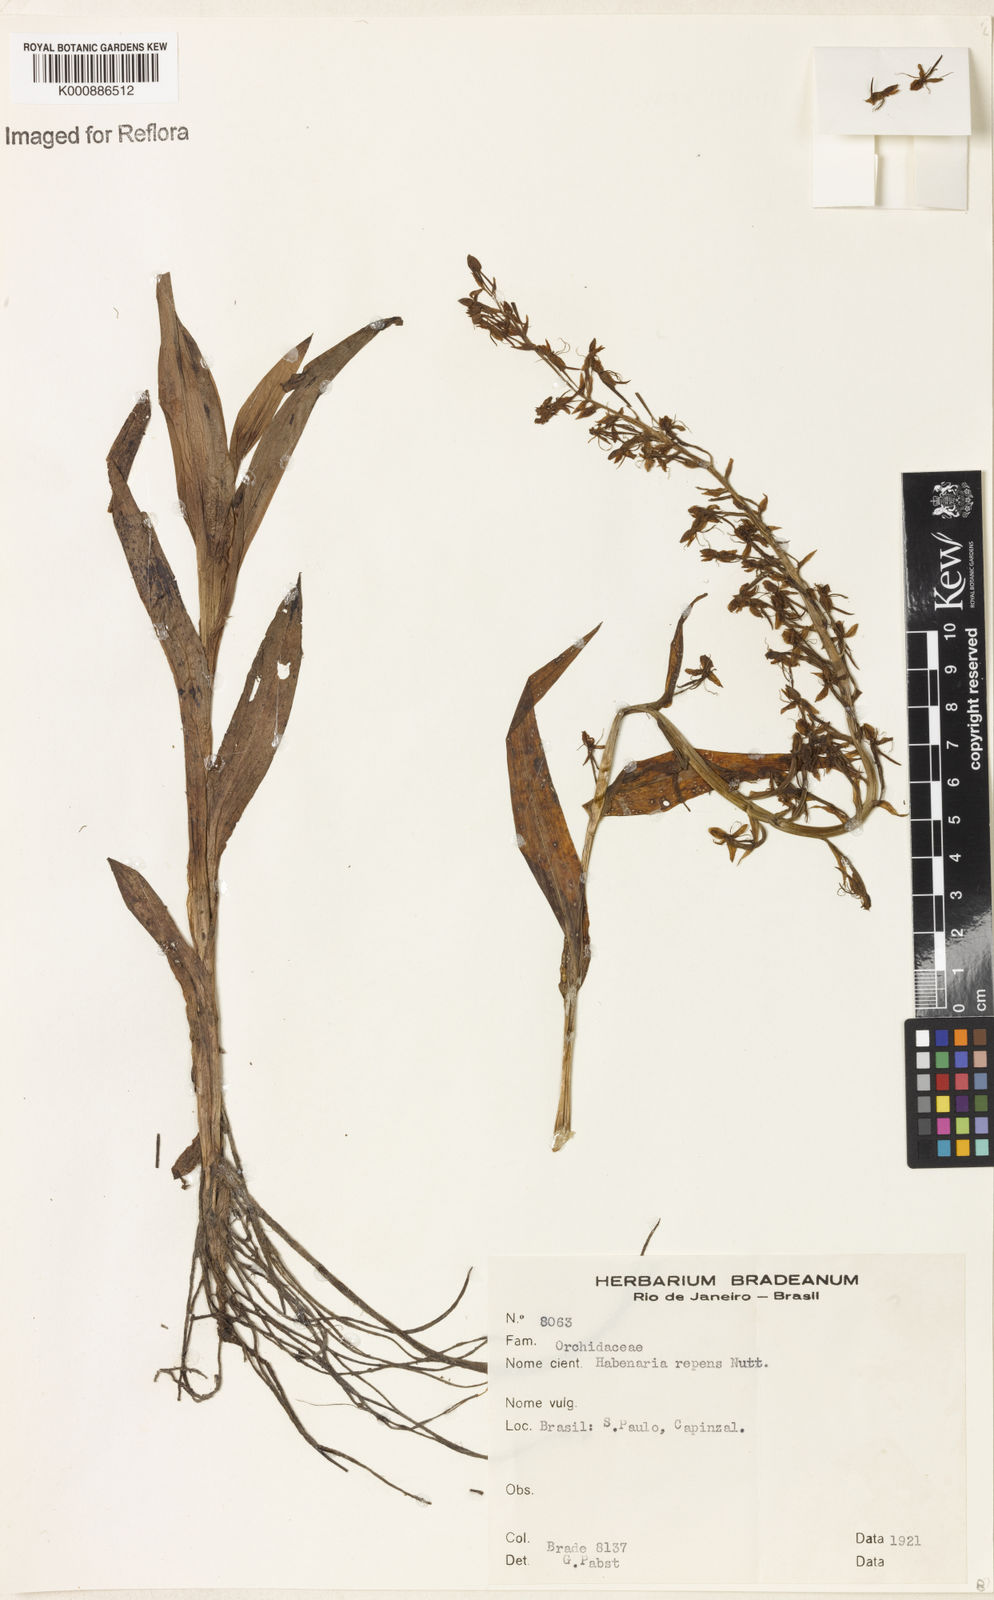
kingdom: Plantae
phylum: Tracheophyta
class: Liliopsida
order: Asparagales
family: Orchidaceae
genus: Habenaria
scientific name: Habenaria
